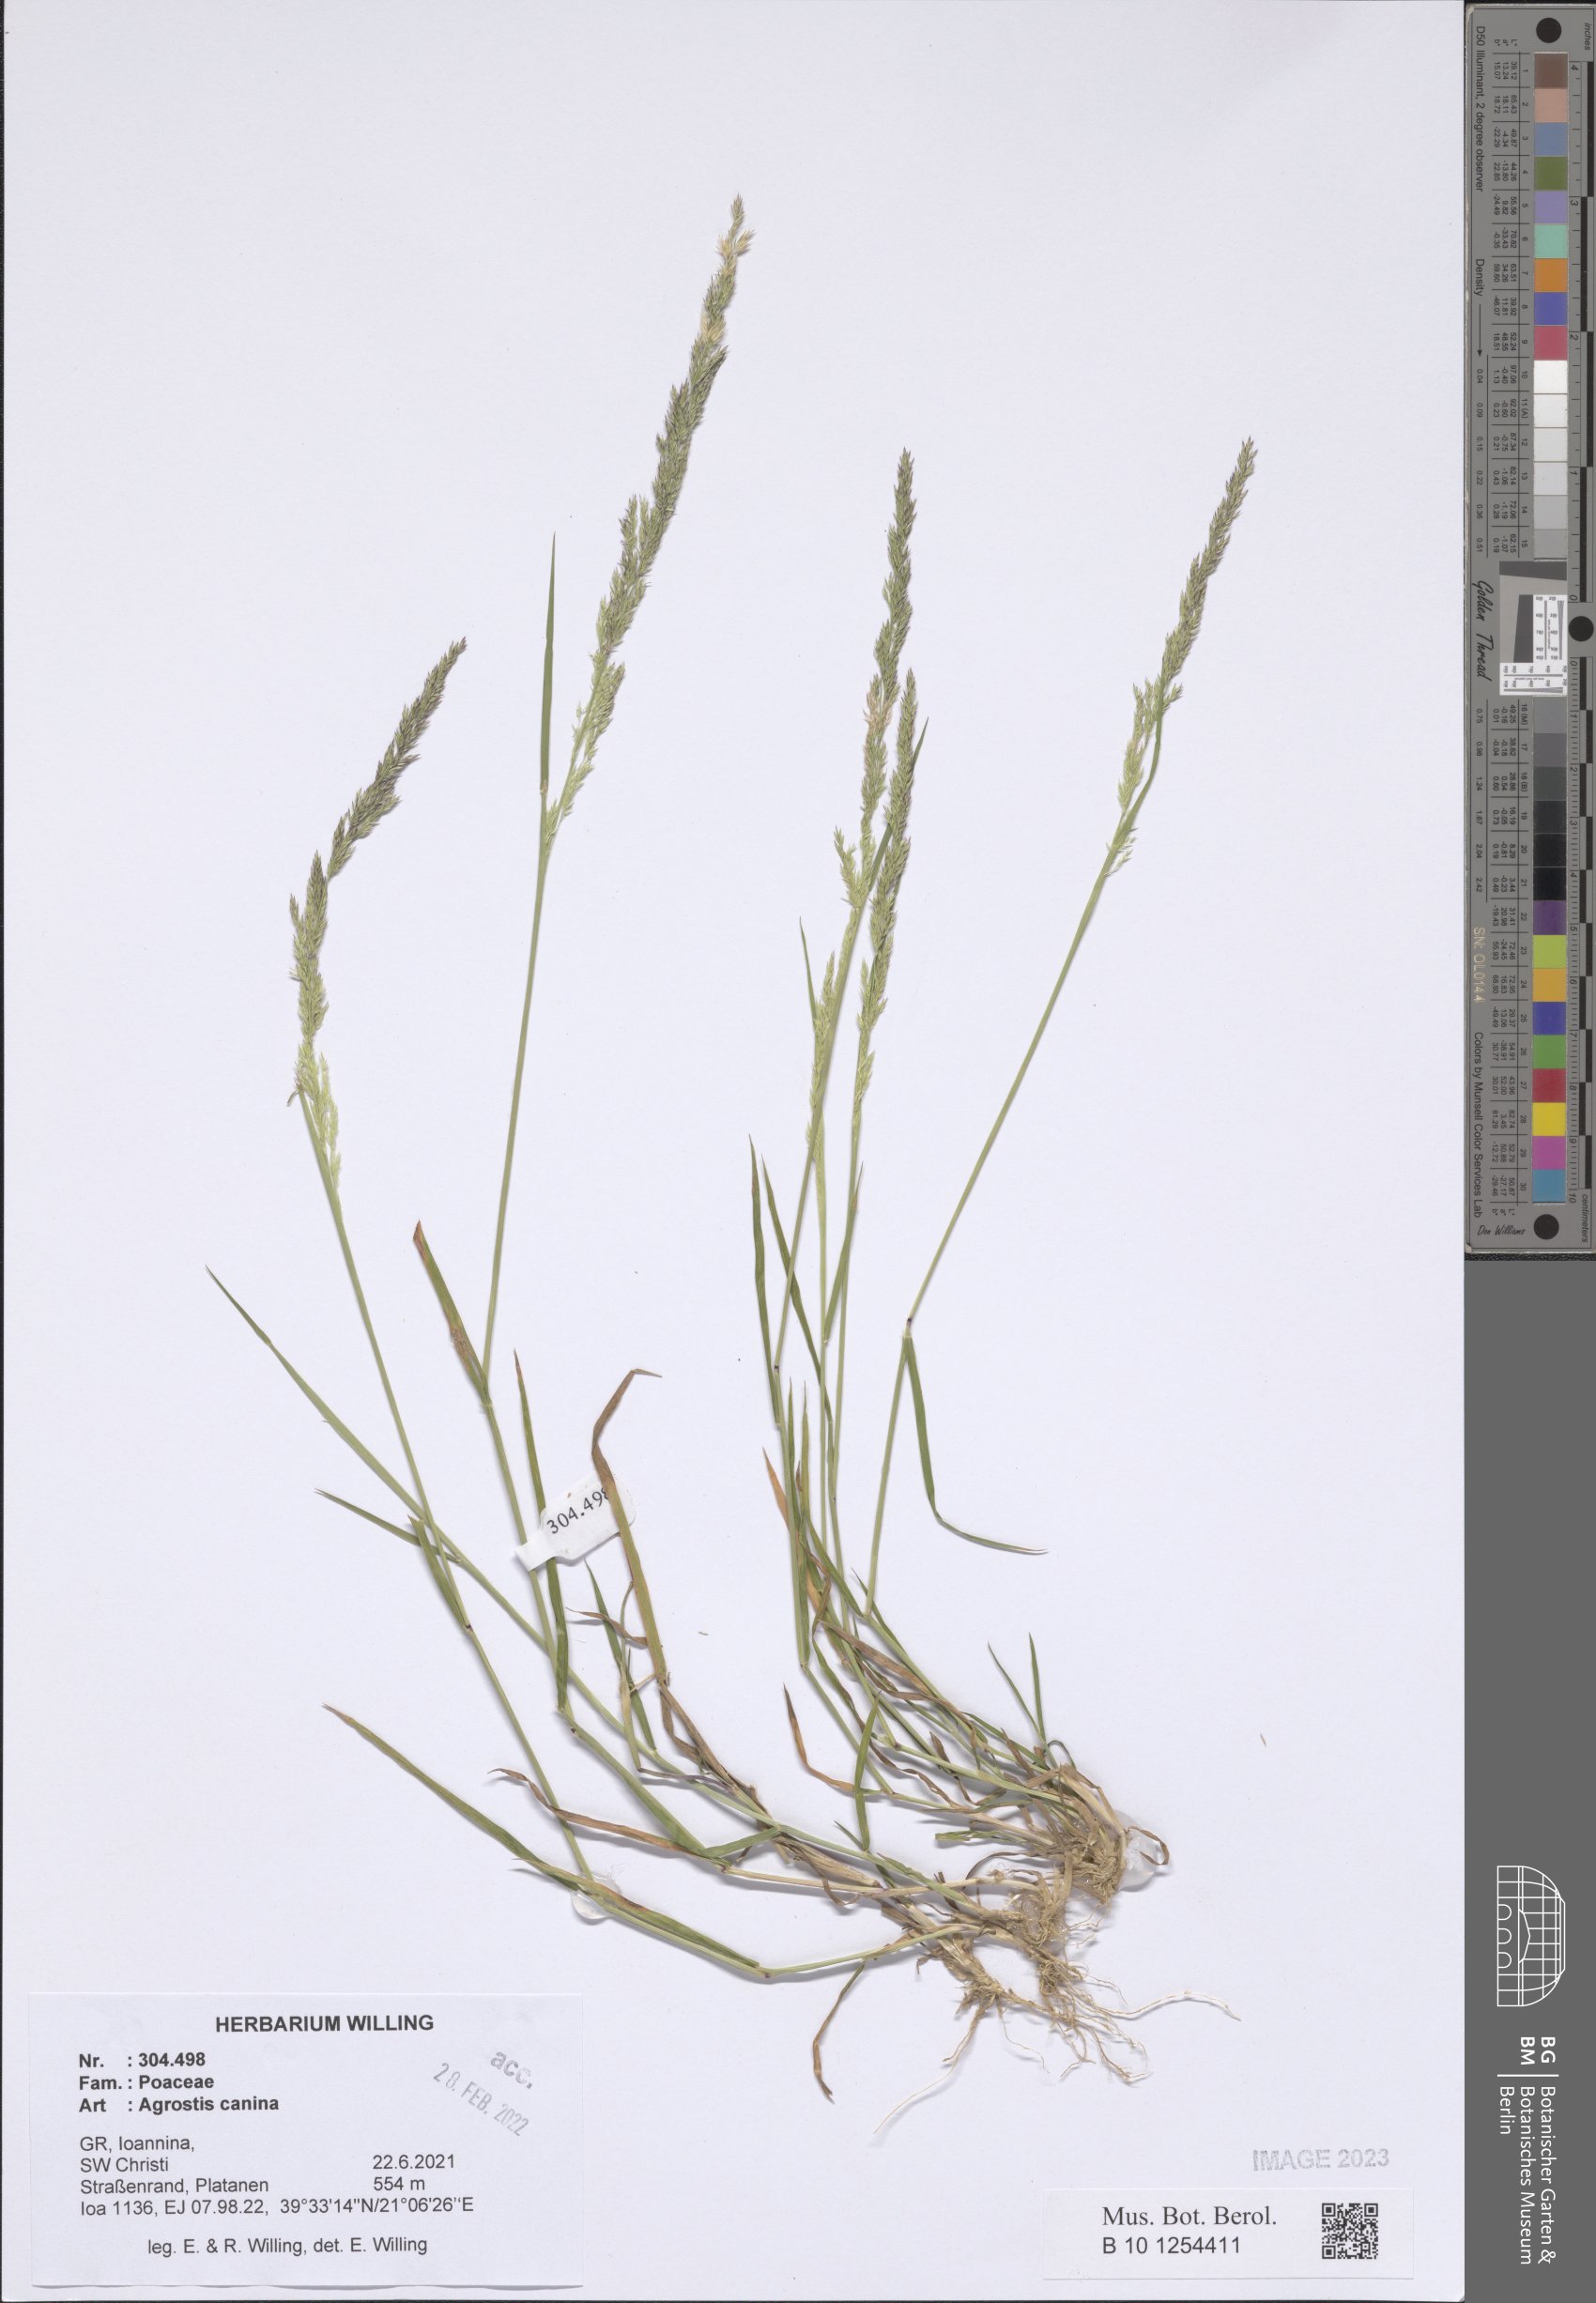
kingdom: Plantae
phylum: Tracheophyta
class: Liliopsida
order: Poales
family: Poaceae
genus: Agrostis
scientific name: Agrostis canina
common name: Velvet bent
